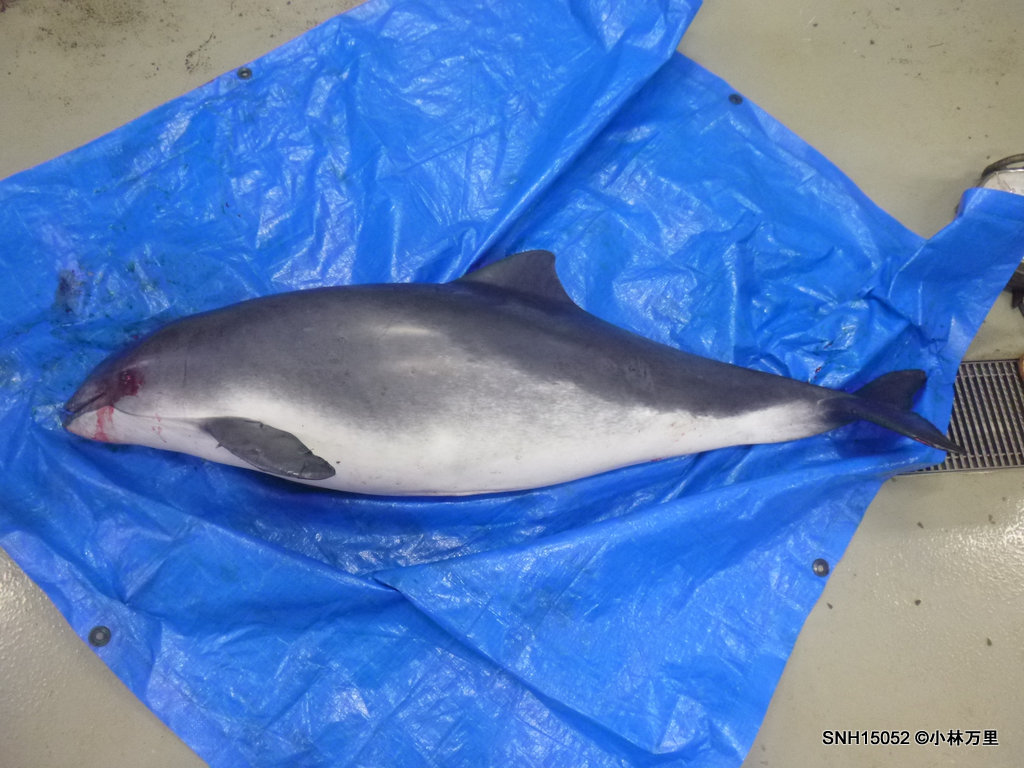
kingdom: Animalia
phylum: Chordata
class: Mammalia
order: Cetacea
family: Phocoenidae
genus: Phocoena
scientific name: Phocoena phocoena
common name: Harbour porpoise
